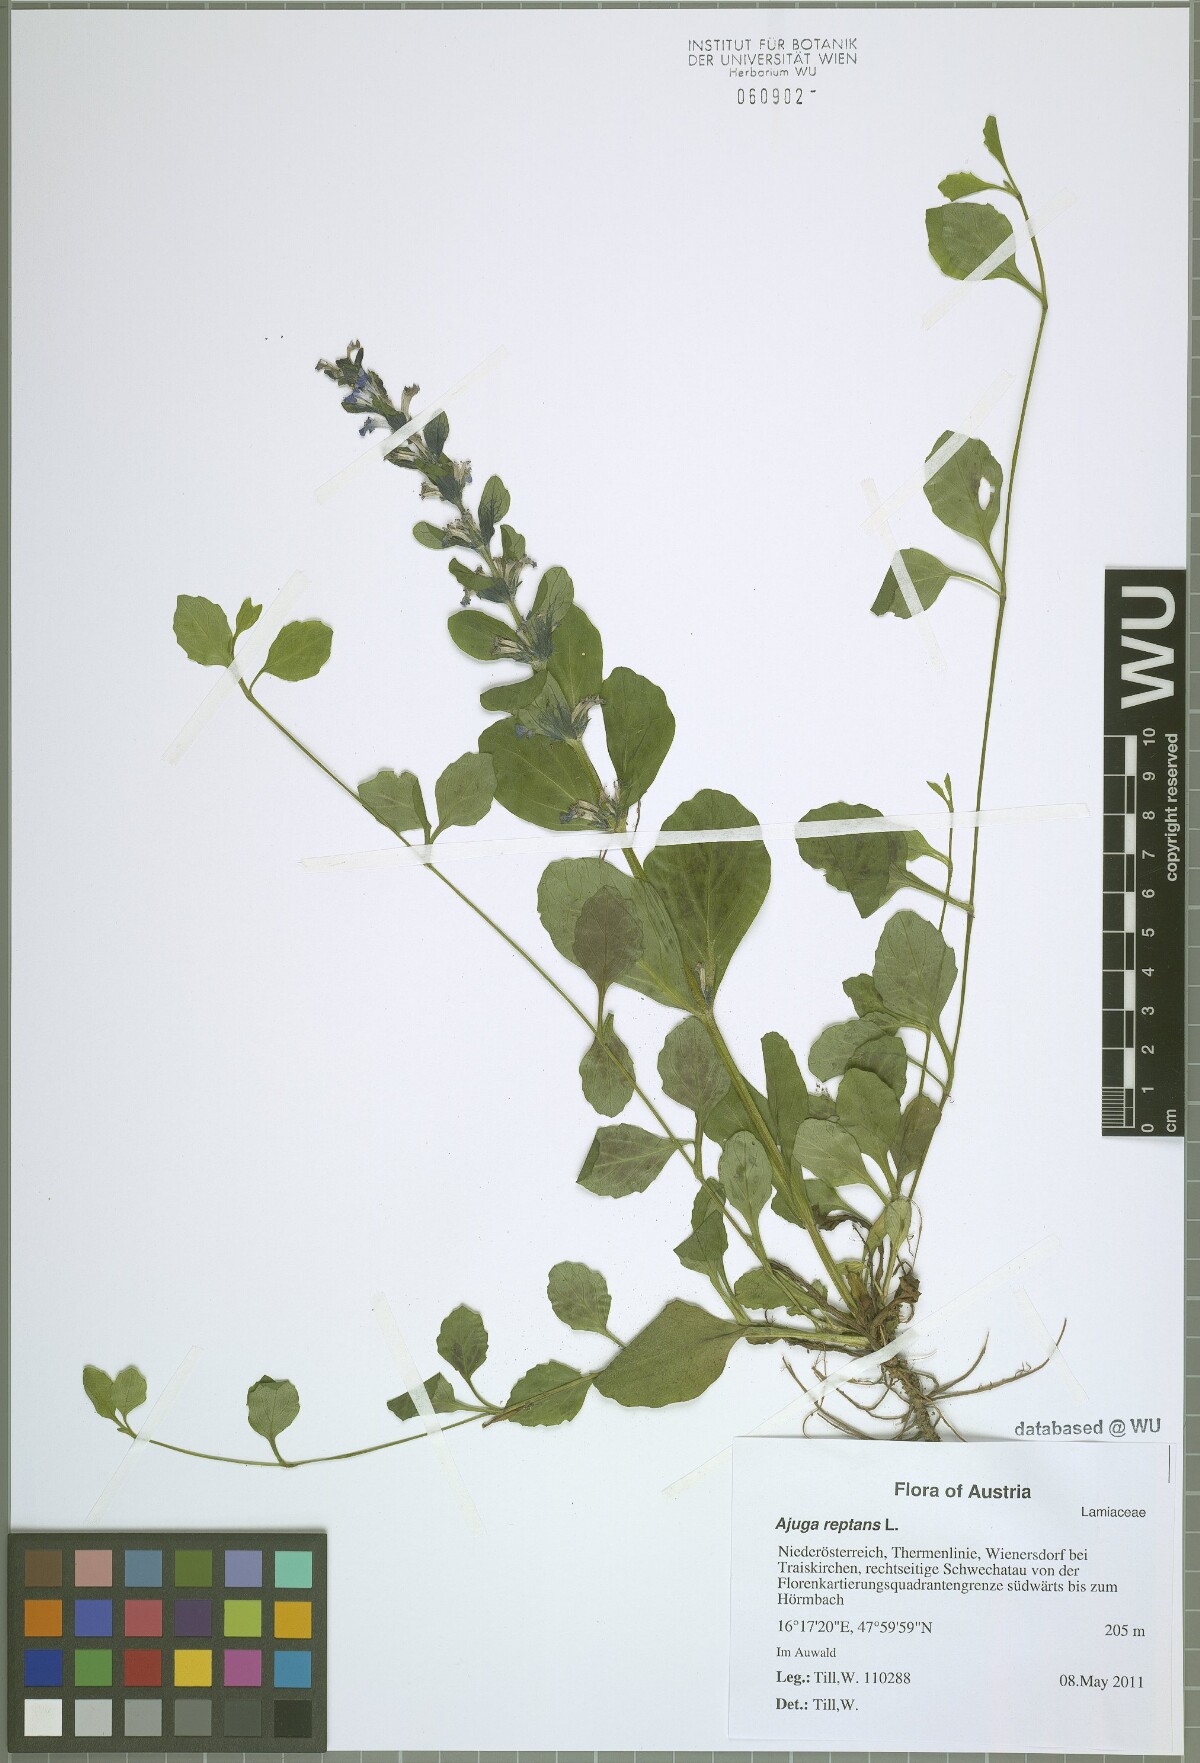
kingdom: Plantae
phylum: Tracheophyta
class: Magnoliopsida
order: Lamiales
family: Lamiaceae
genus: Ajuga
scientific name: Ajuga reptans
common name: Bugle
